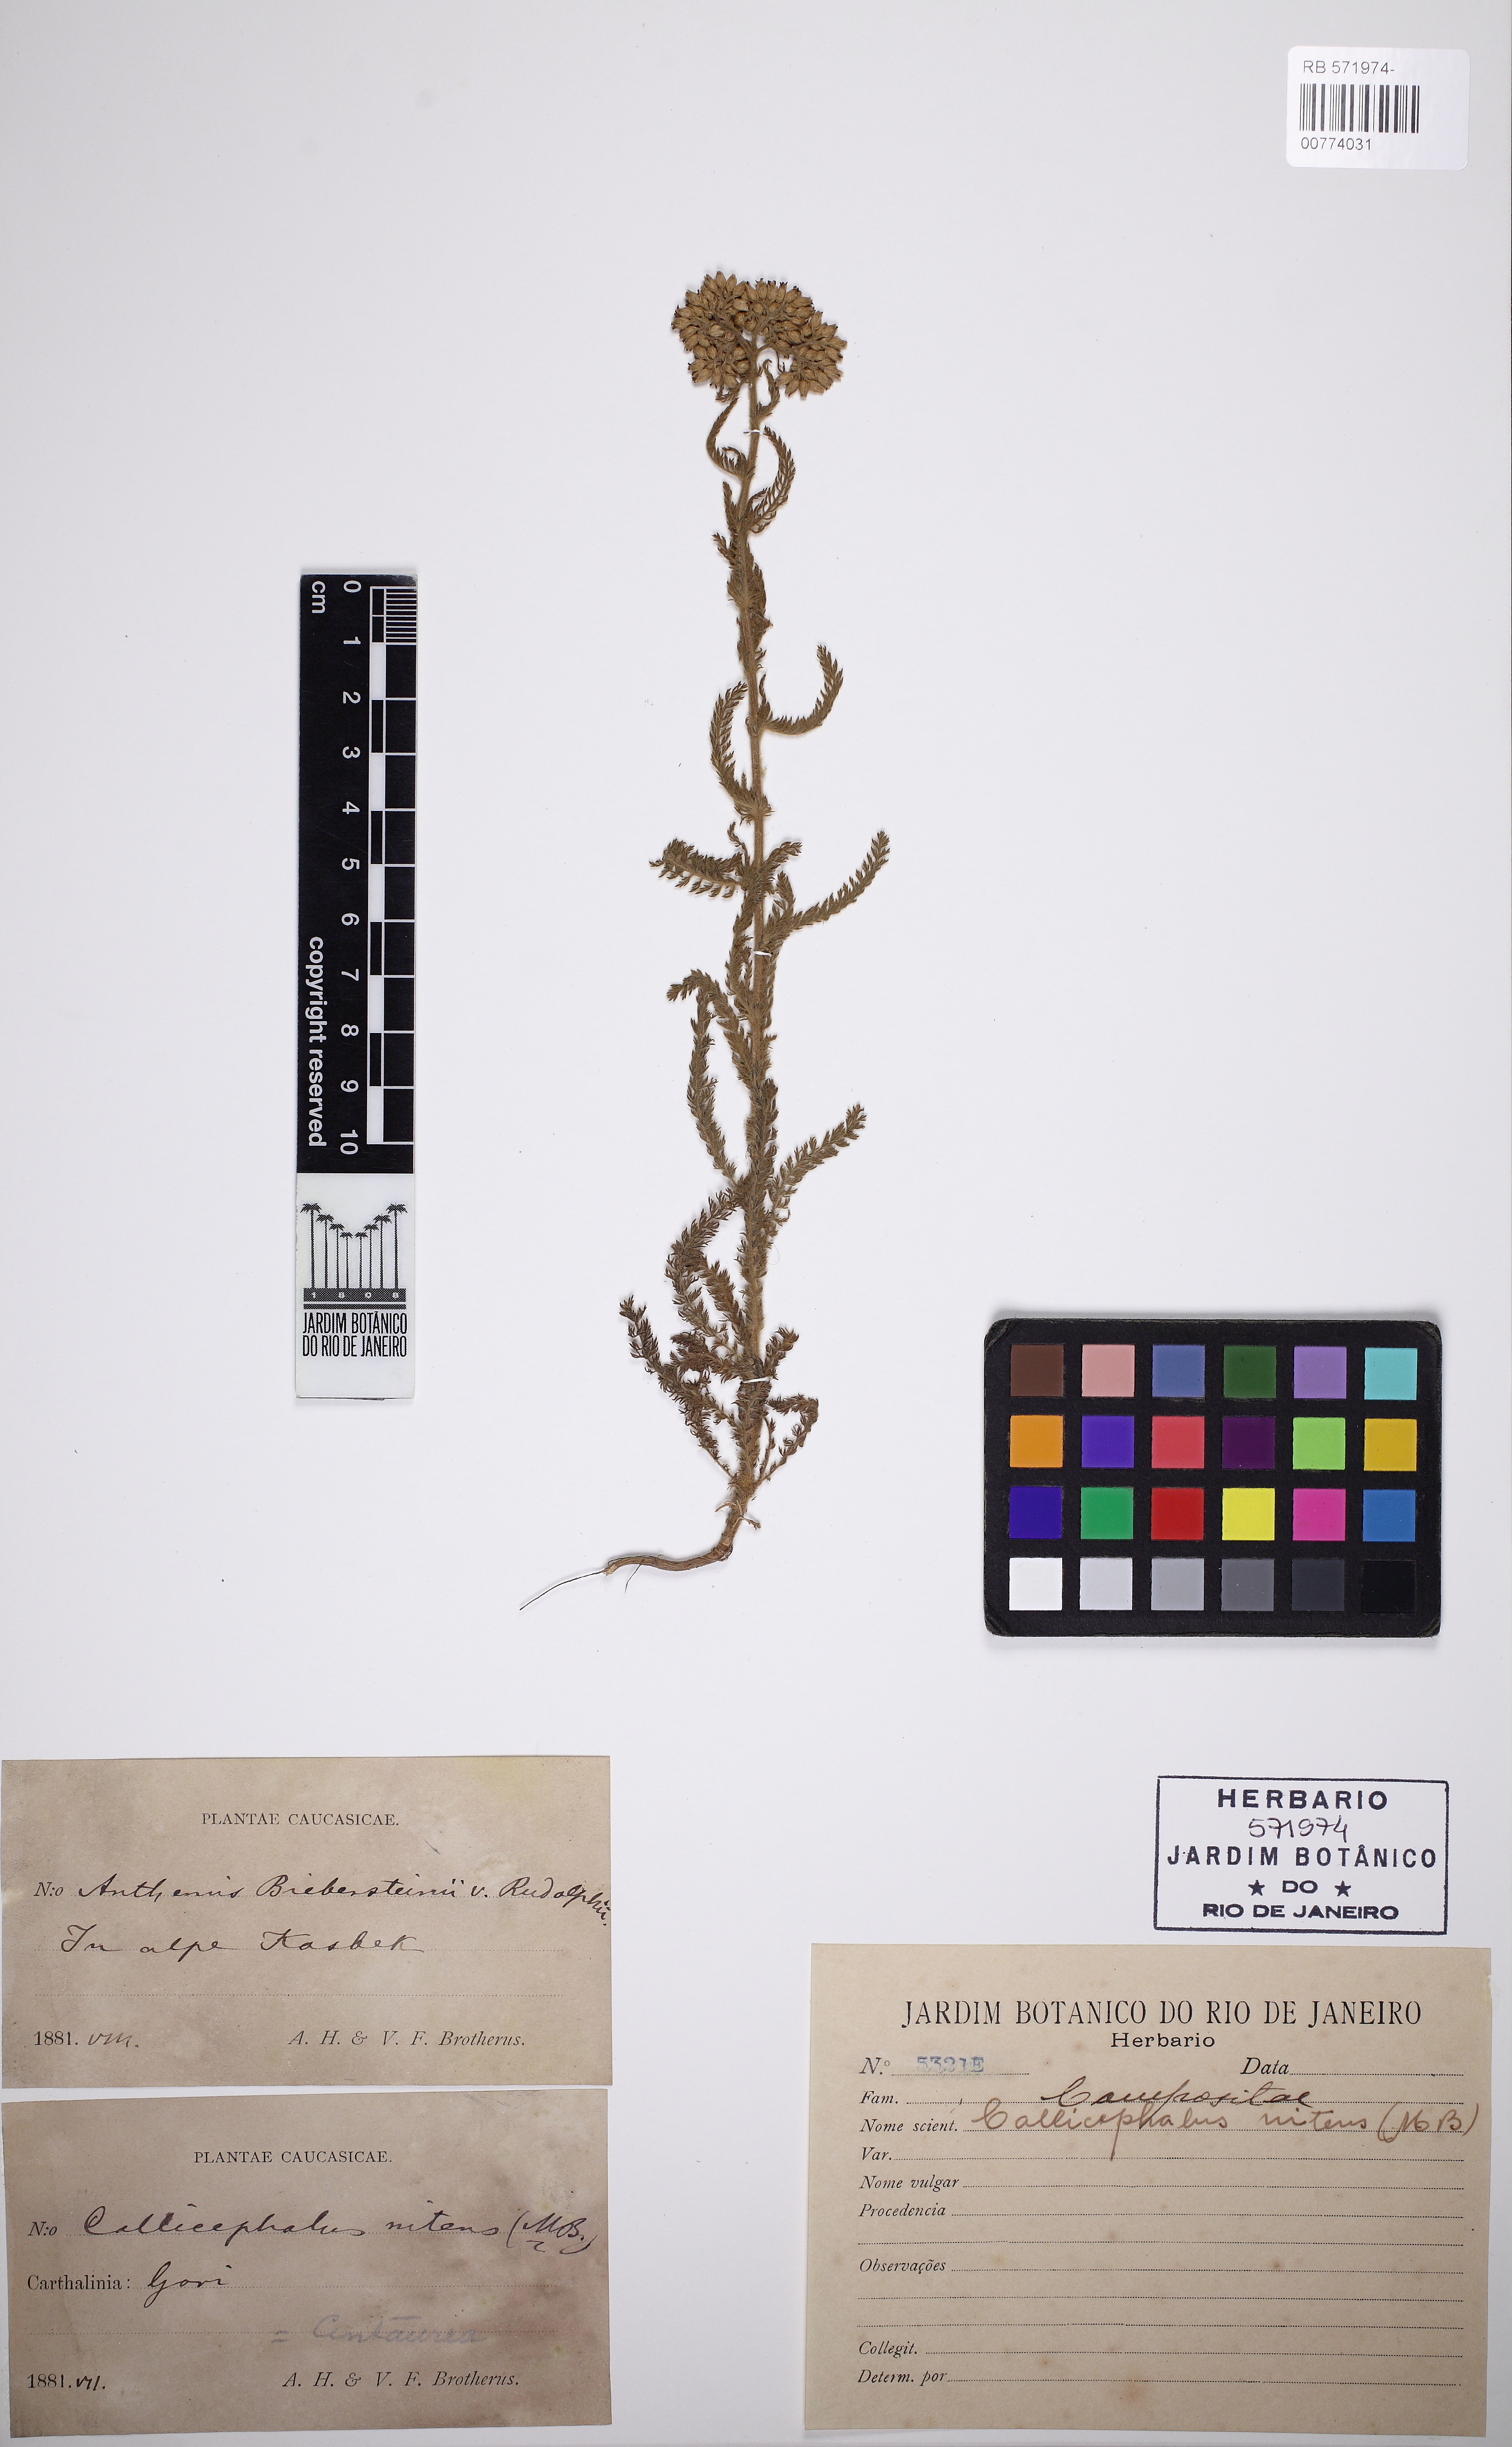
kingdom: Plantae
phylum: Tracheophyta
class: Magnoliopsida
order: Asterales
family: Asteraceae
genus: Callicephalus
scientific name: Callicephalus nitens
